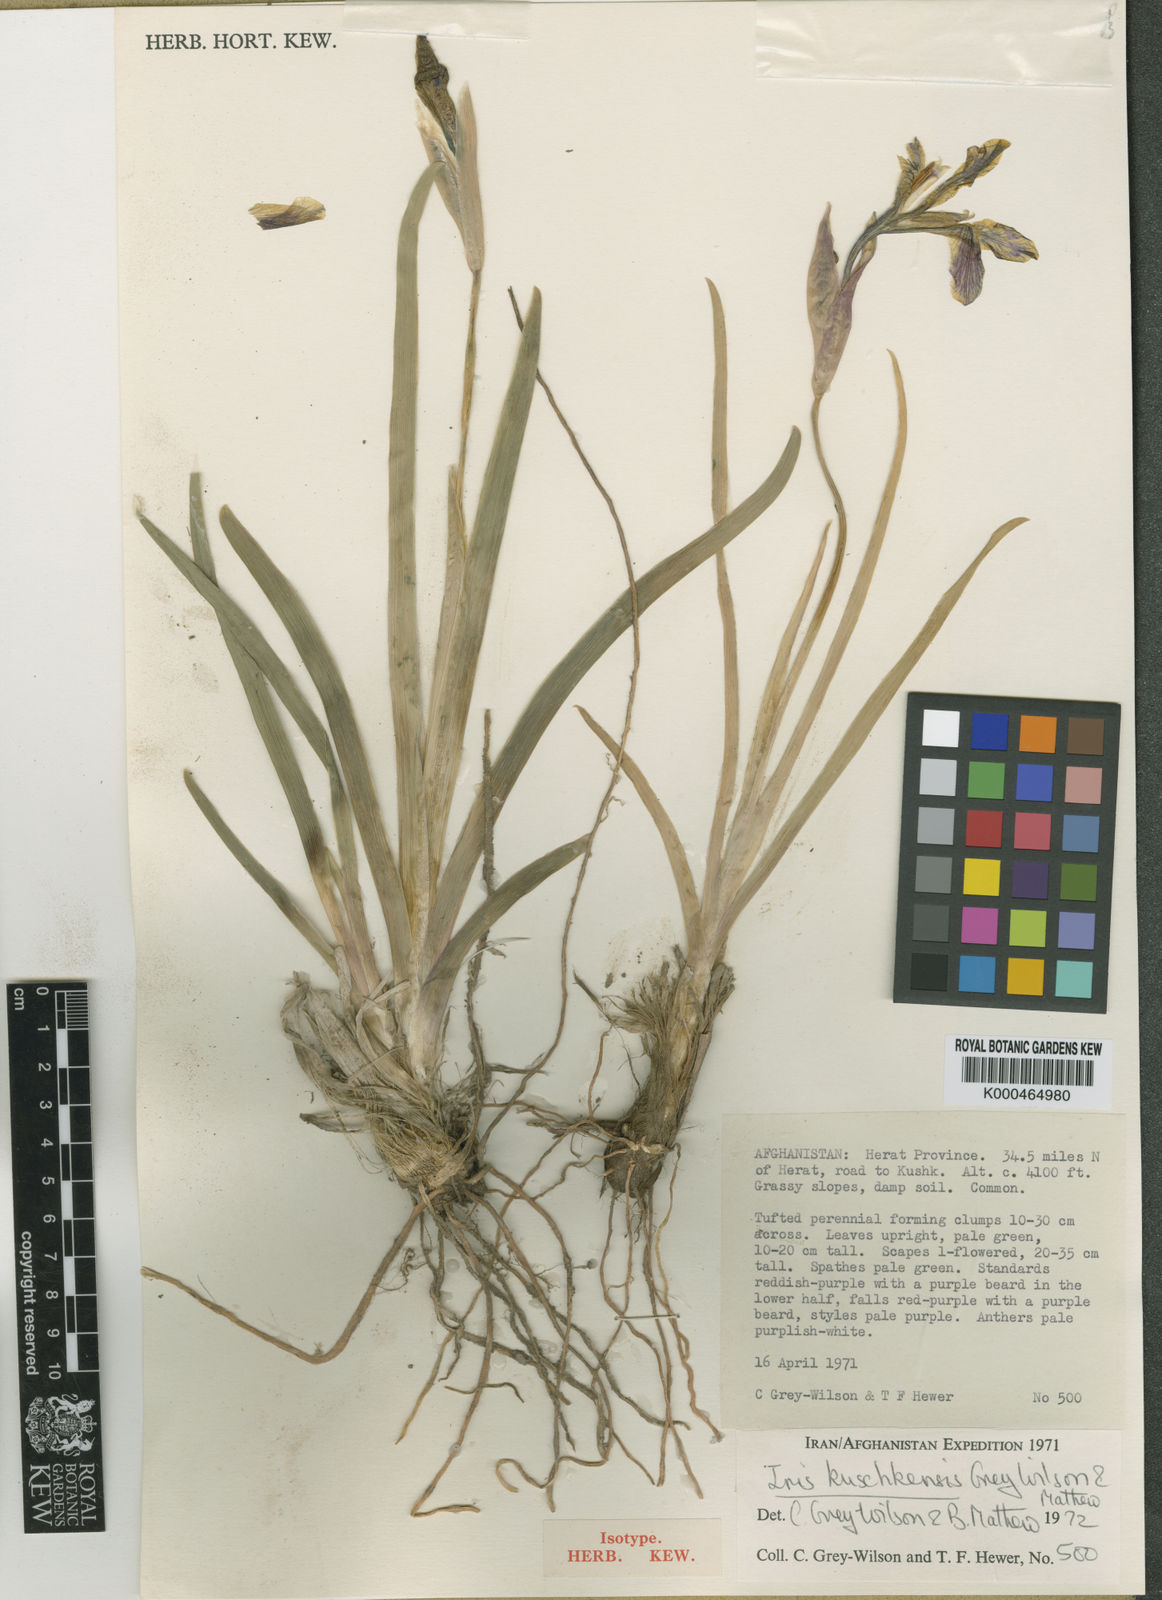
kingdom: Plantae
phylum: Tracheophyta
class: Liliopsida
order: Asparagales
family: Iridaceae
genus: Iris
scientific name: Iris kuschkensis
